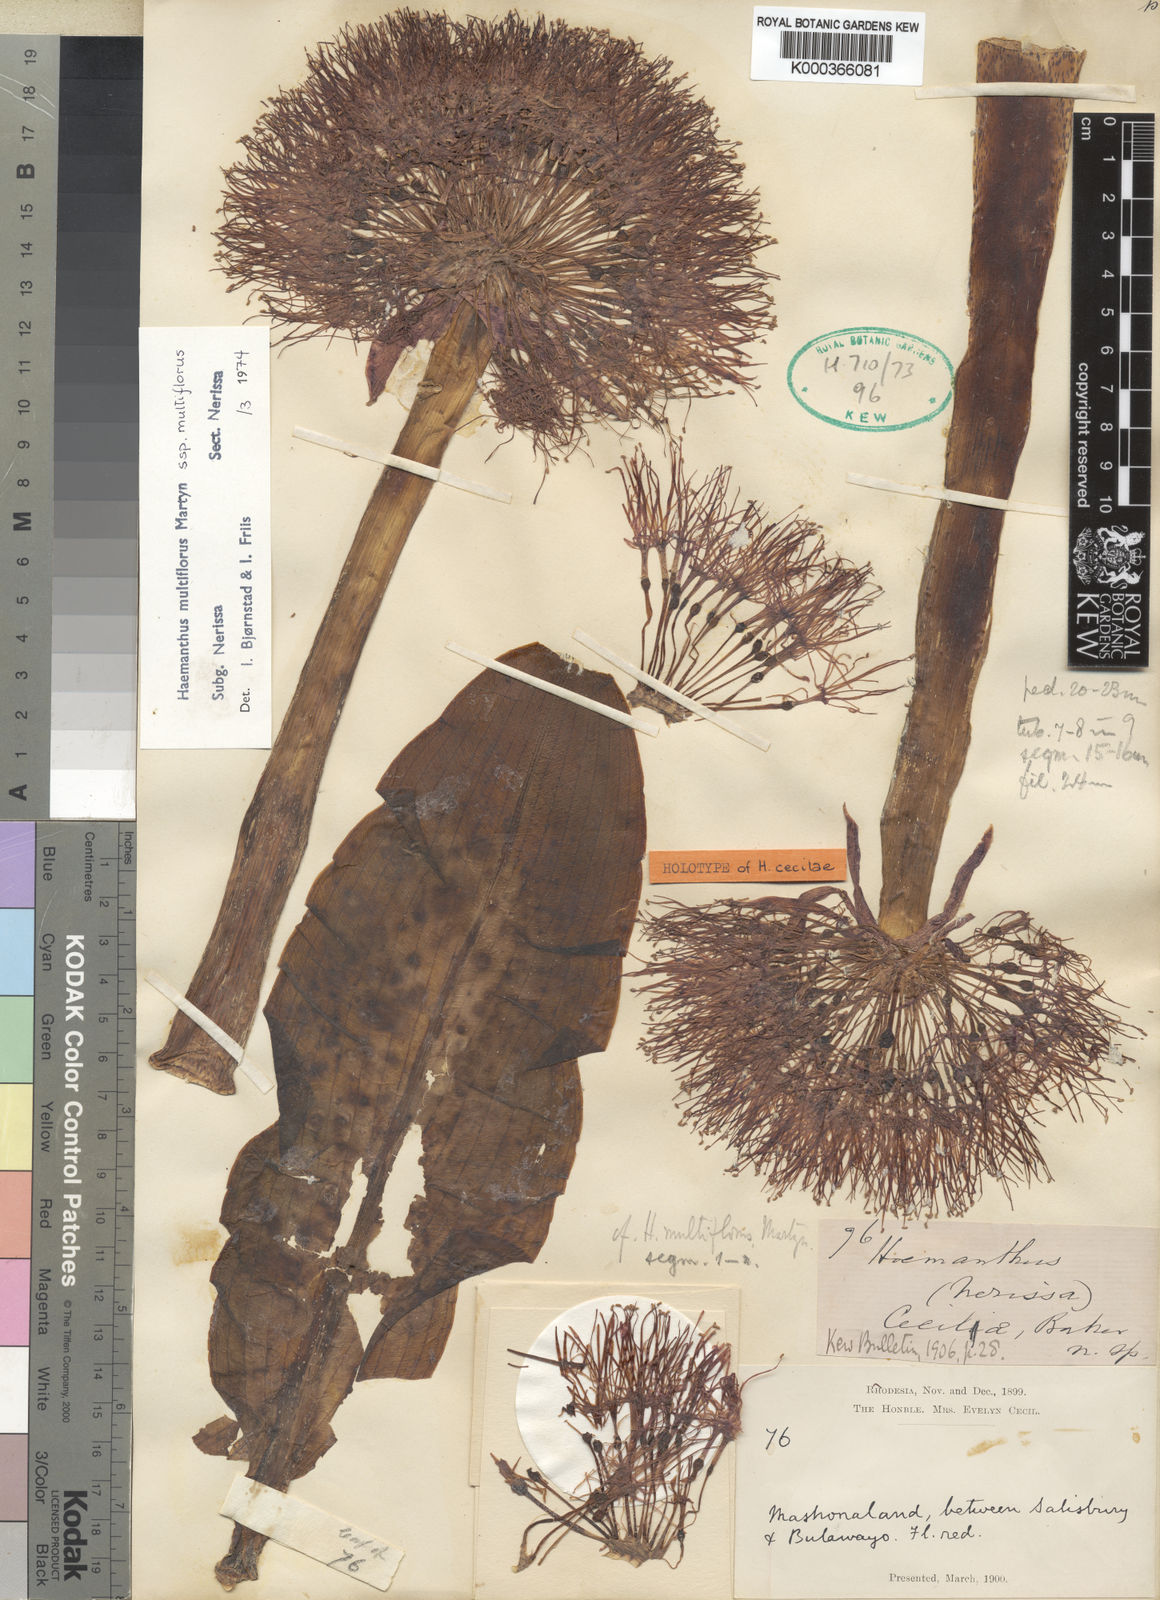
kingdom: Plantae
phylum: Tracheophyta
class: Liliopsida
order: Asparagales
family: Amaryllidaceae
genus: Scadoxus
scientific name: Scadoxus multiflorus
